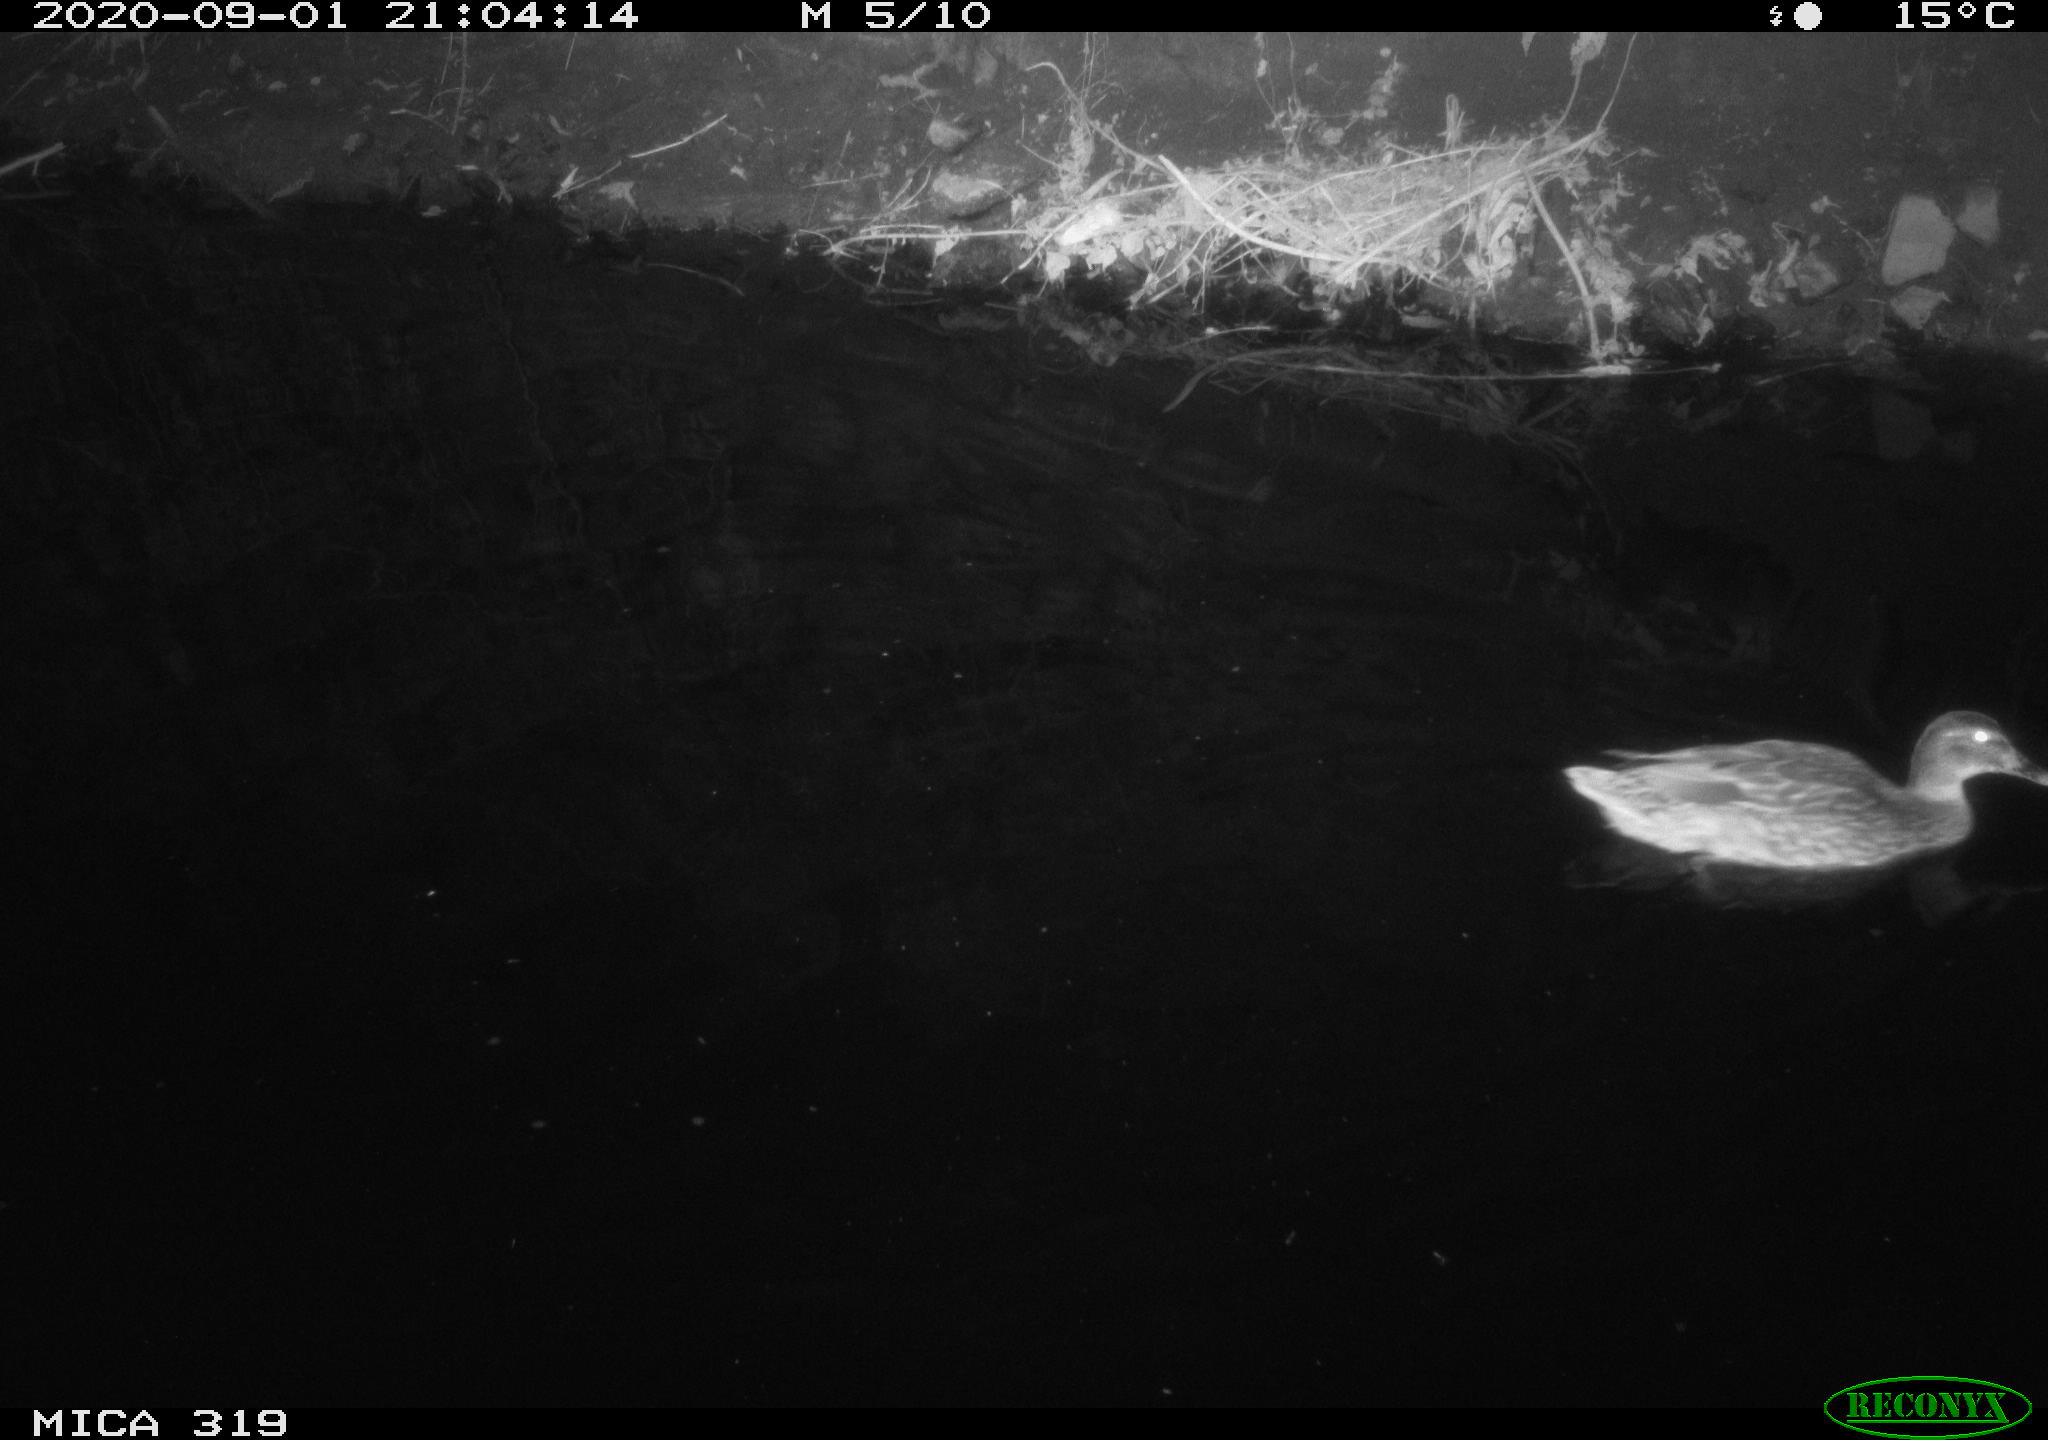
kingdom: Animalia
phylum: Chordata
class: Aves
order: Anseriformes
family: Anatidae
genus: Anas
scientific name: Anas platyrhynchos
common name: Mallard
